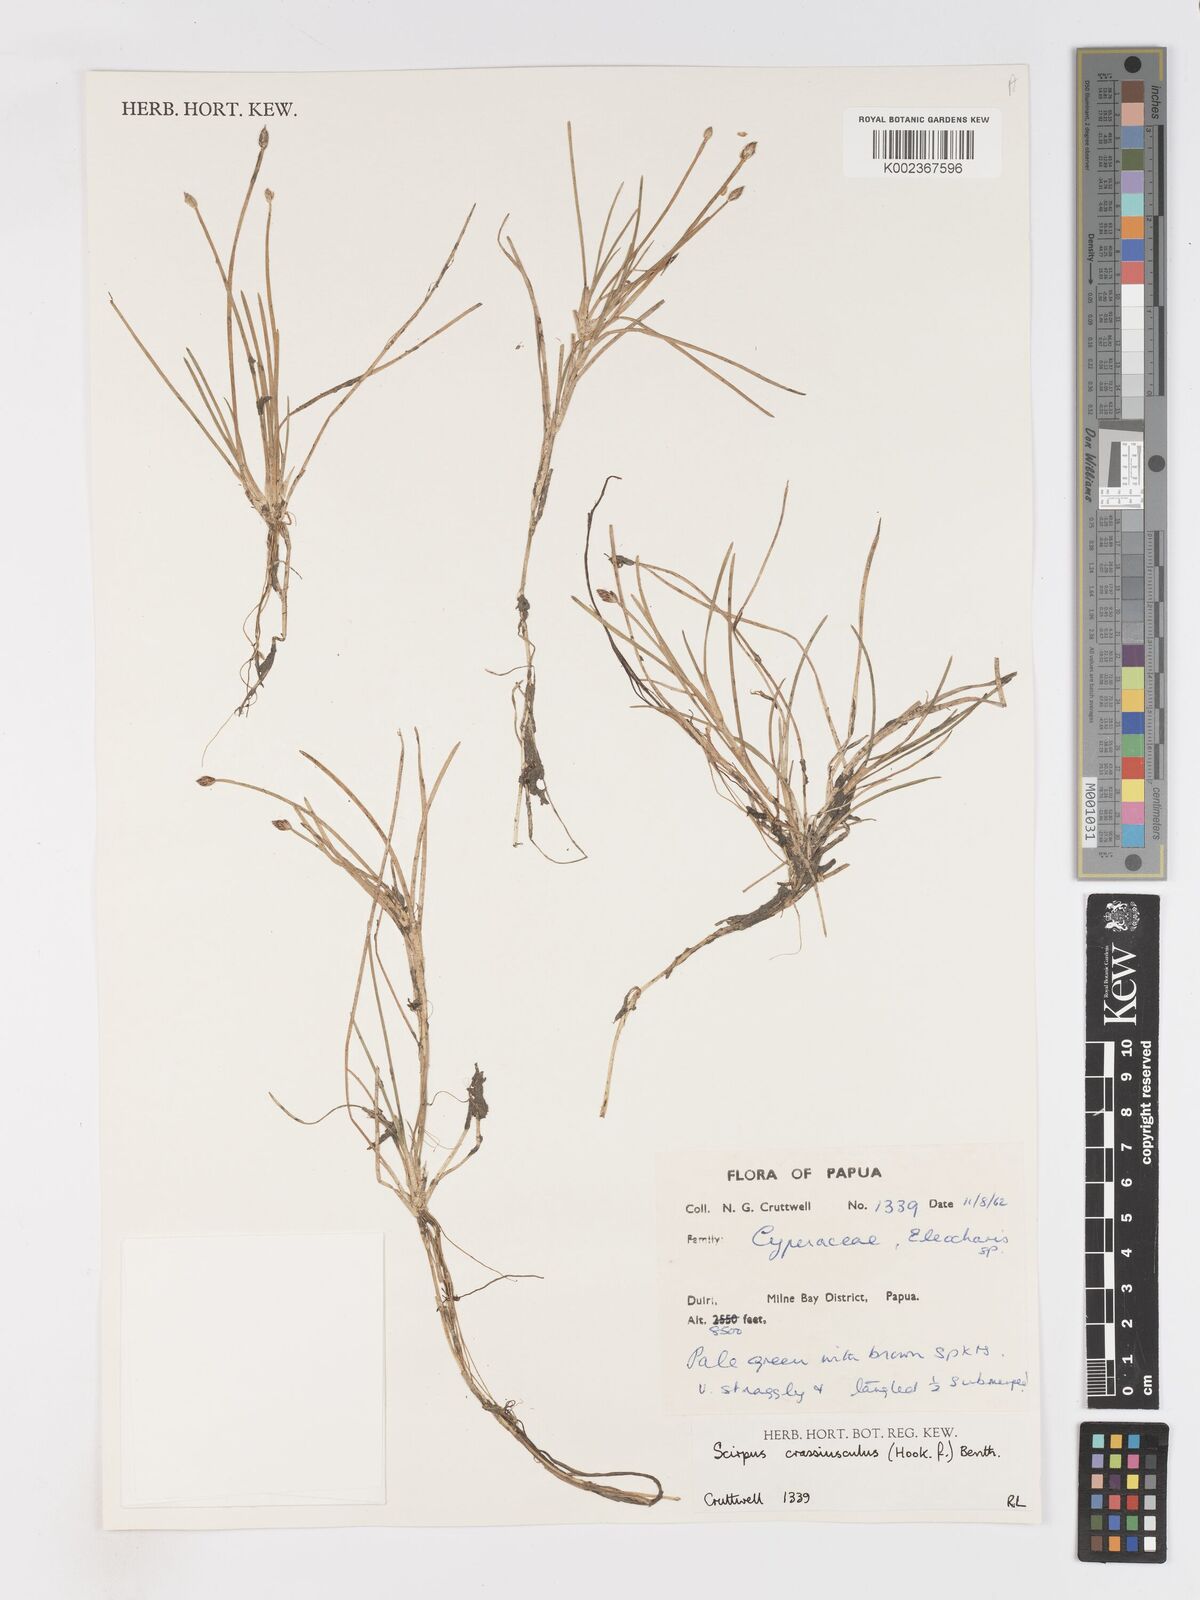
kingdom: Plantae
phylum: Tracheophyta
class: Liliopsida
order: Poales
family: Cyperaceae
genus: Isolepis
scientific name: Isolepis crassiuscula
